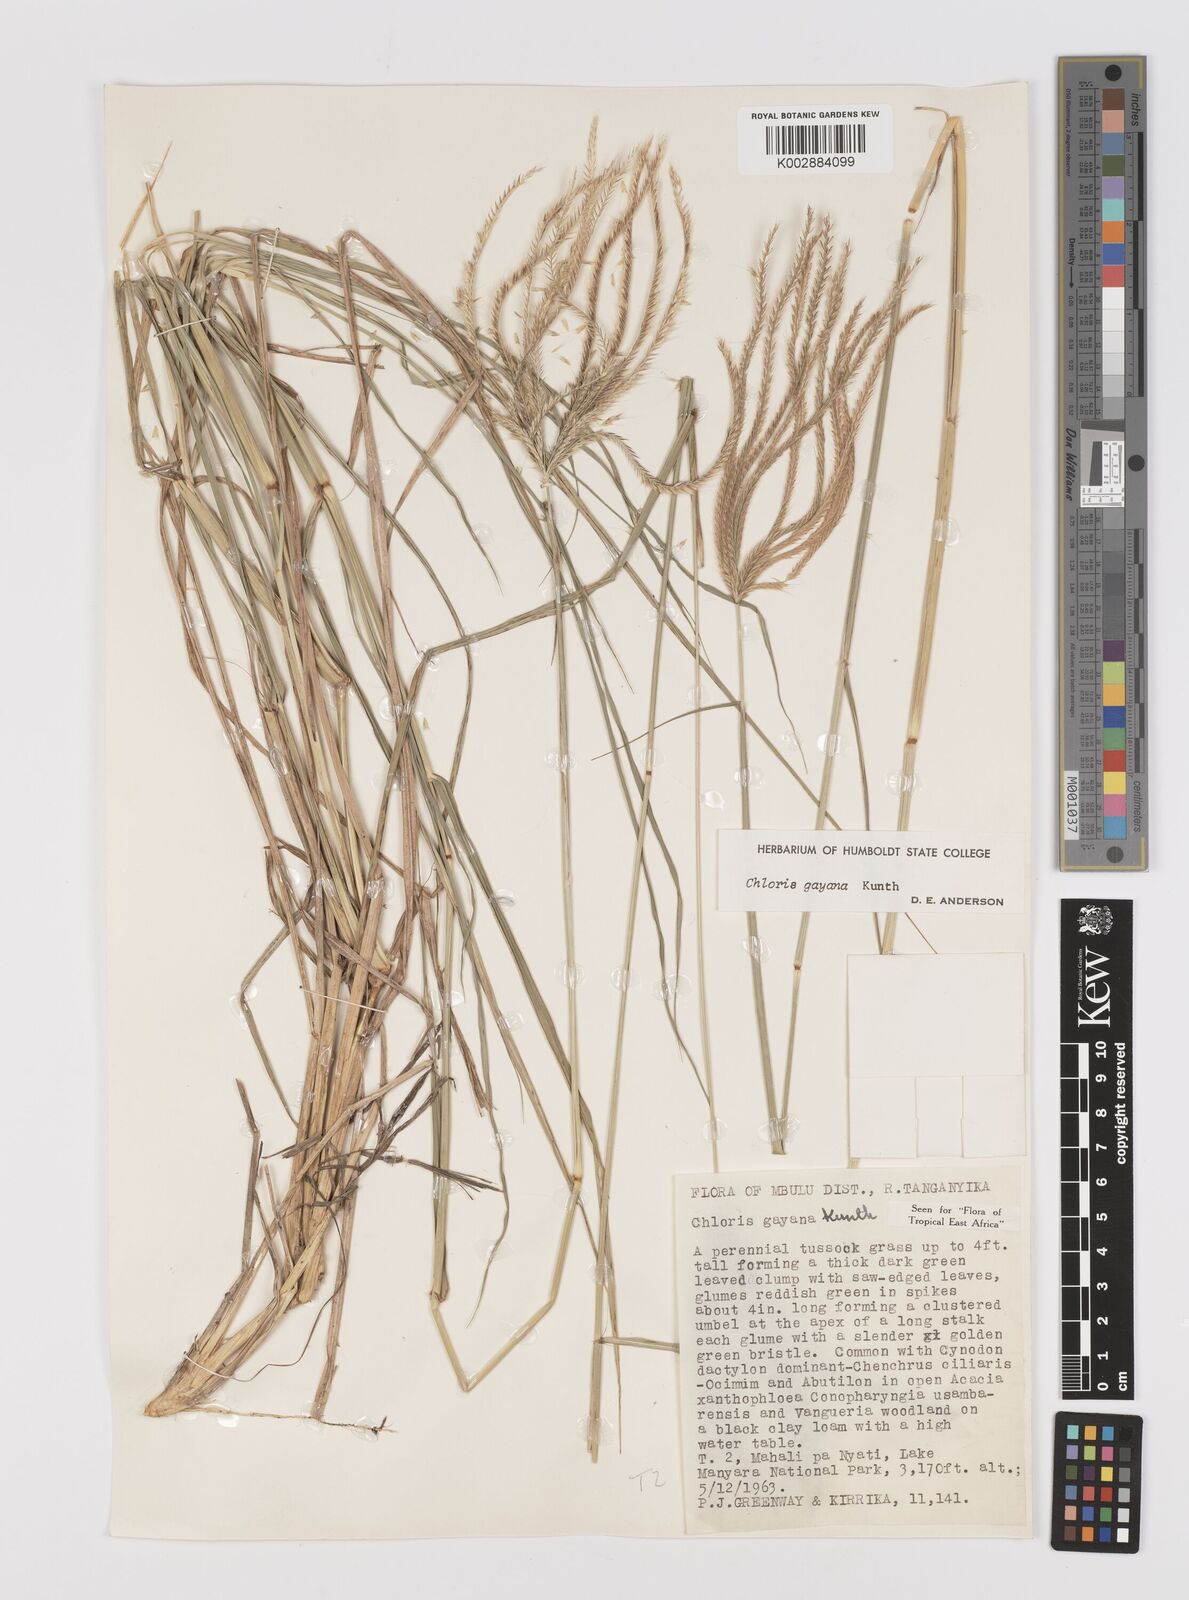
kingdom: Plantae
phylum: Tracheophyta
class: Liliopsida
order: Poales
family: Poaceae
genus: Chloris
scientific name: Chloris gayana
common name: Rhodes grass
